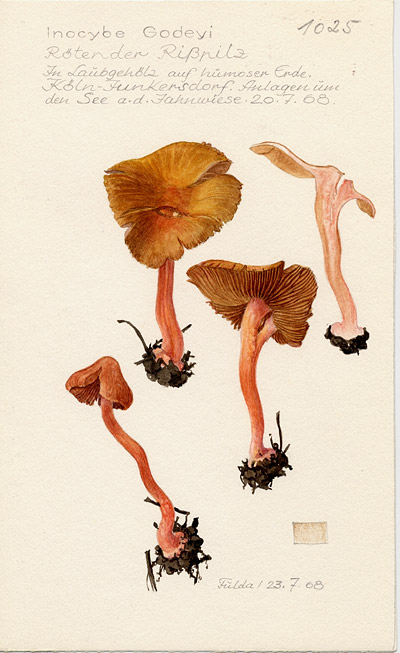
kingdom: Fungi
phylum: Basidiomycota
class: Agaricomycetes
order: Agaricales
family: Inocybaceae
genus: Inocybe
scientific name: Inocybe godeyi
